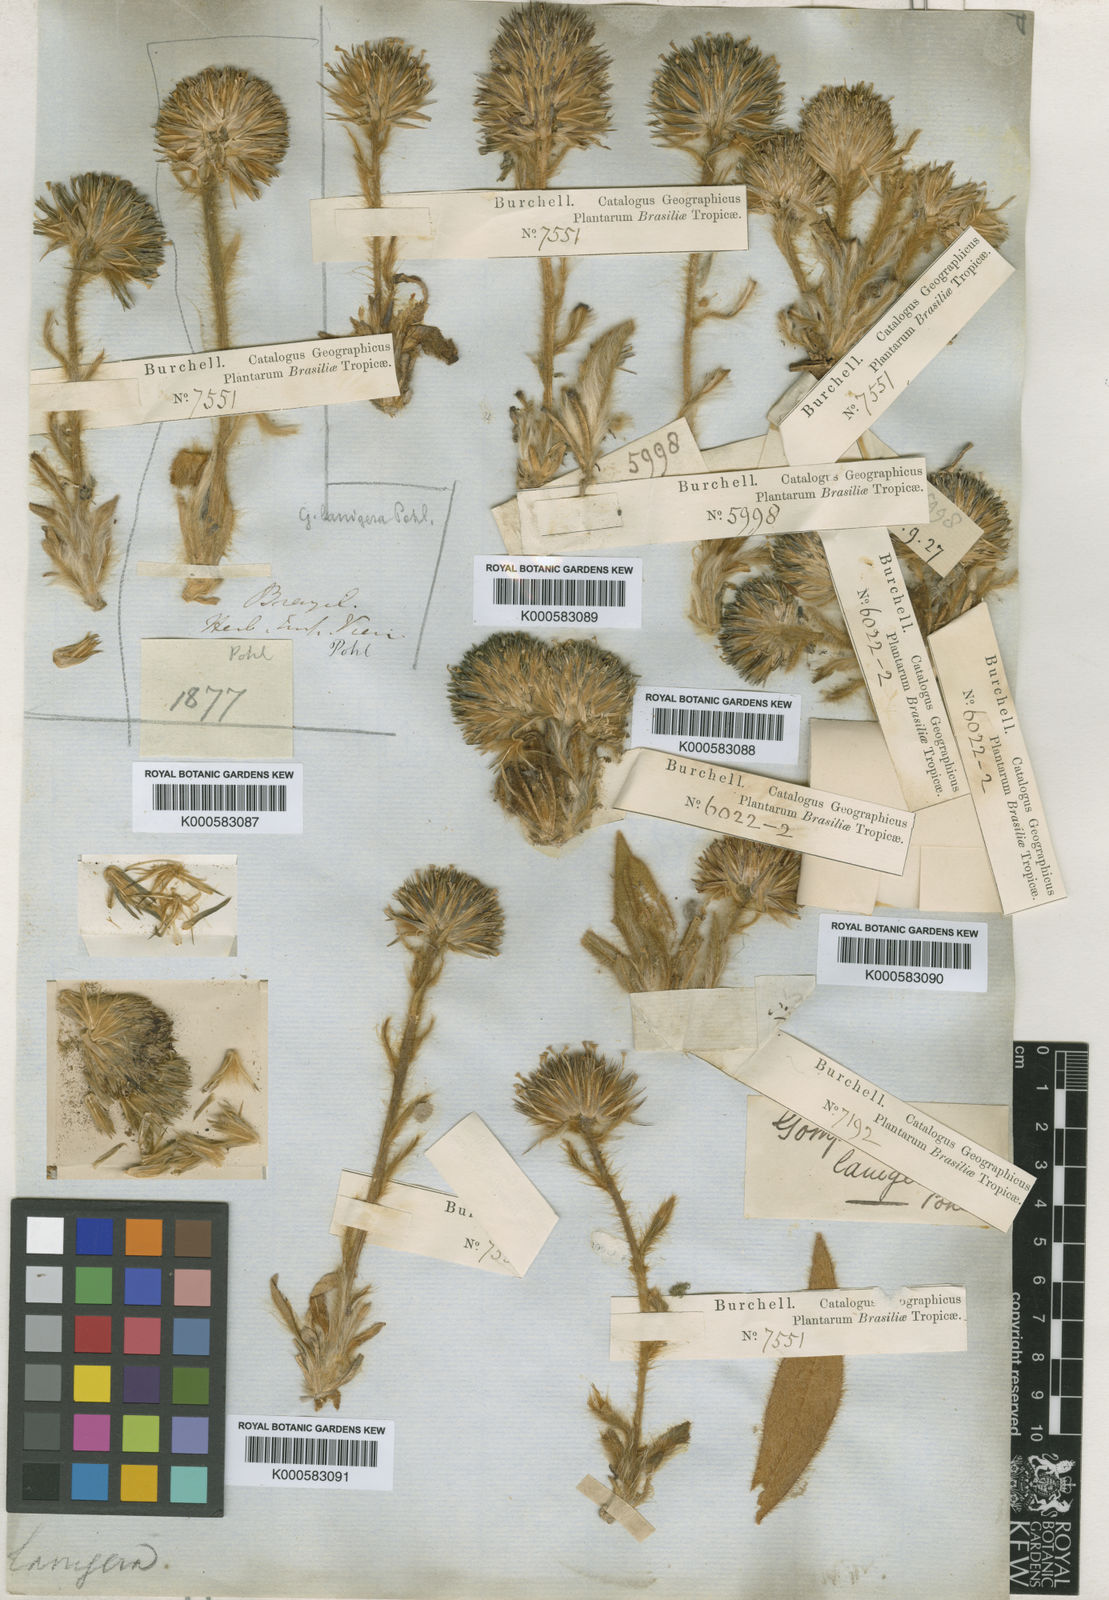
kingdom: Plantae
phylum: Tracheophyta
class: Magnoliopsida
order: Caryophyllales
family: Amaranthaceae
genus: Gomphrena
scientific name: Gomphrena
